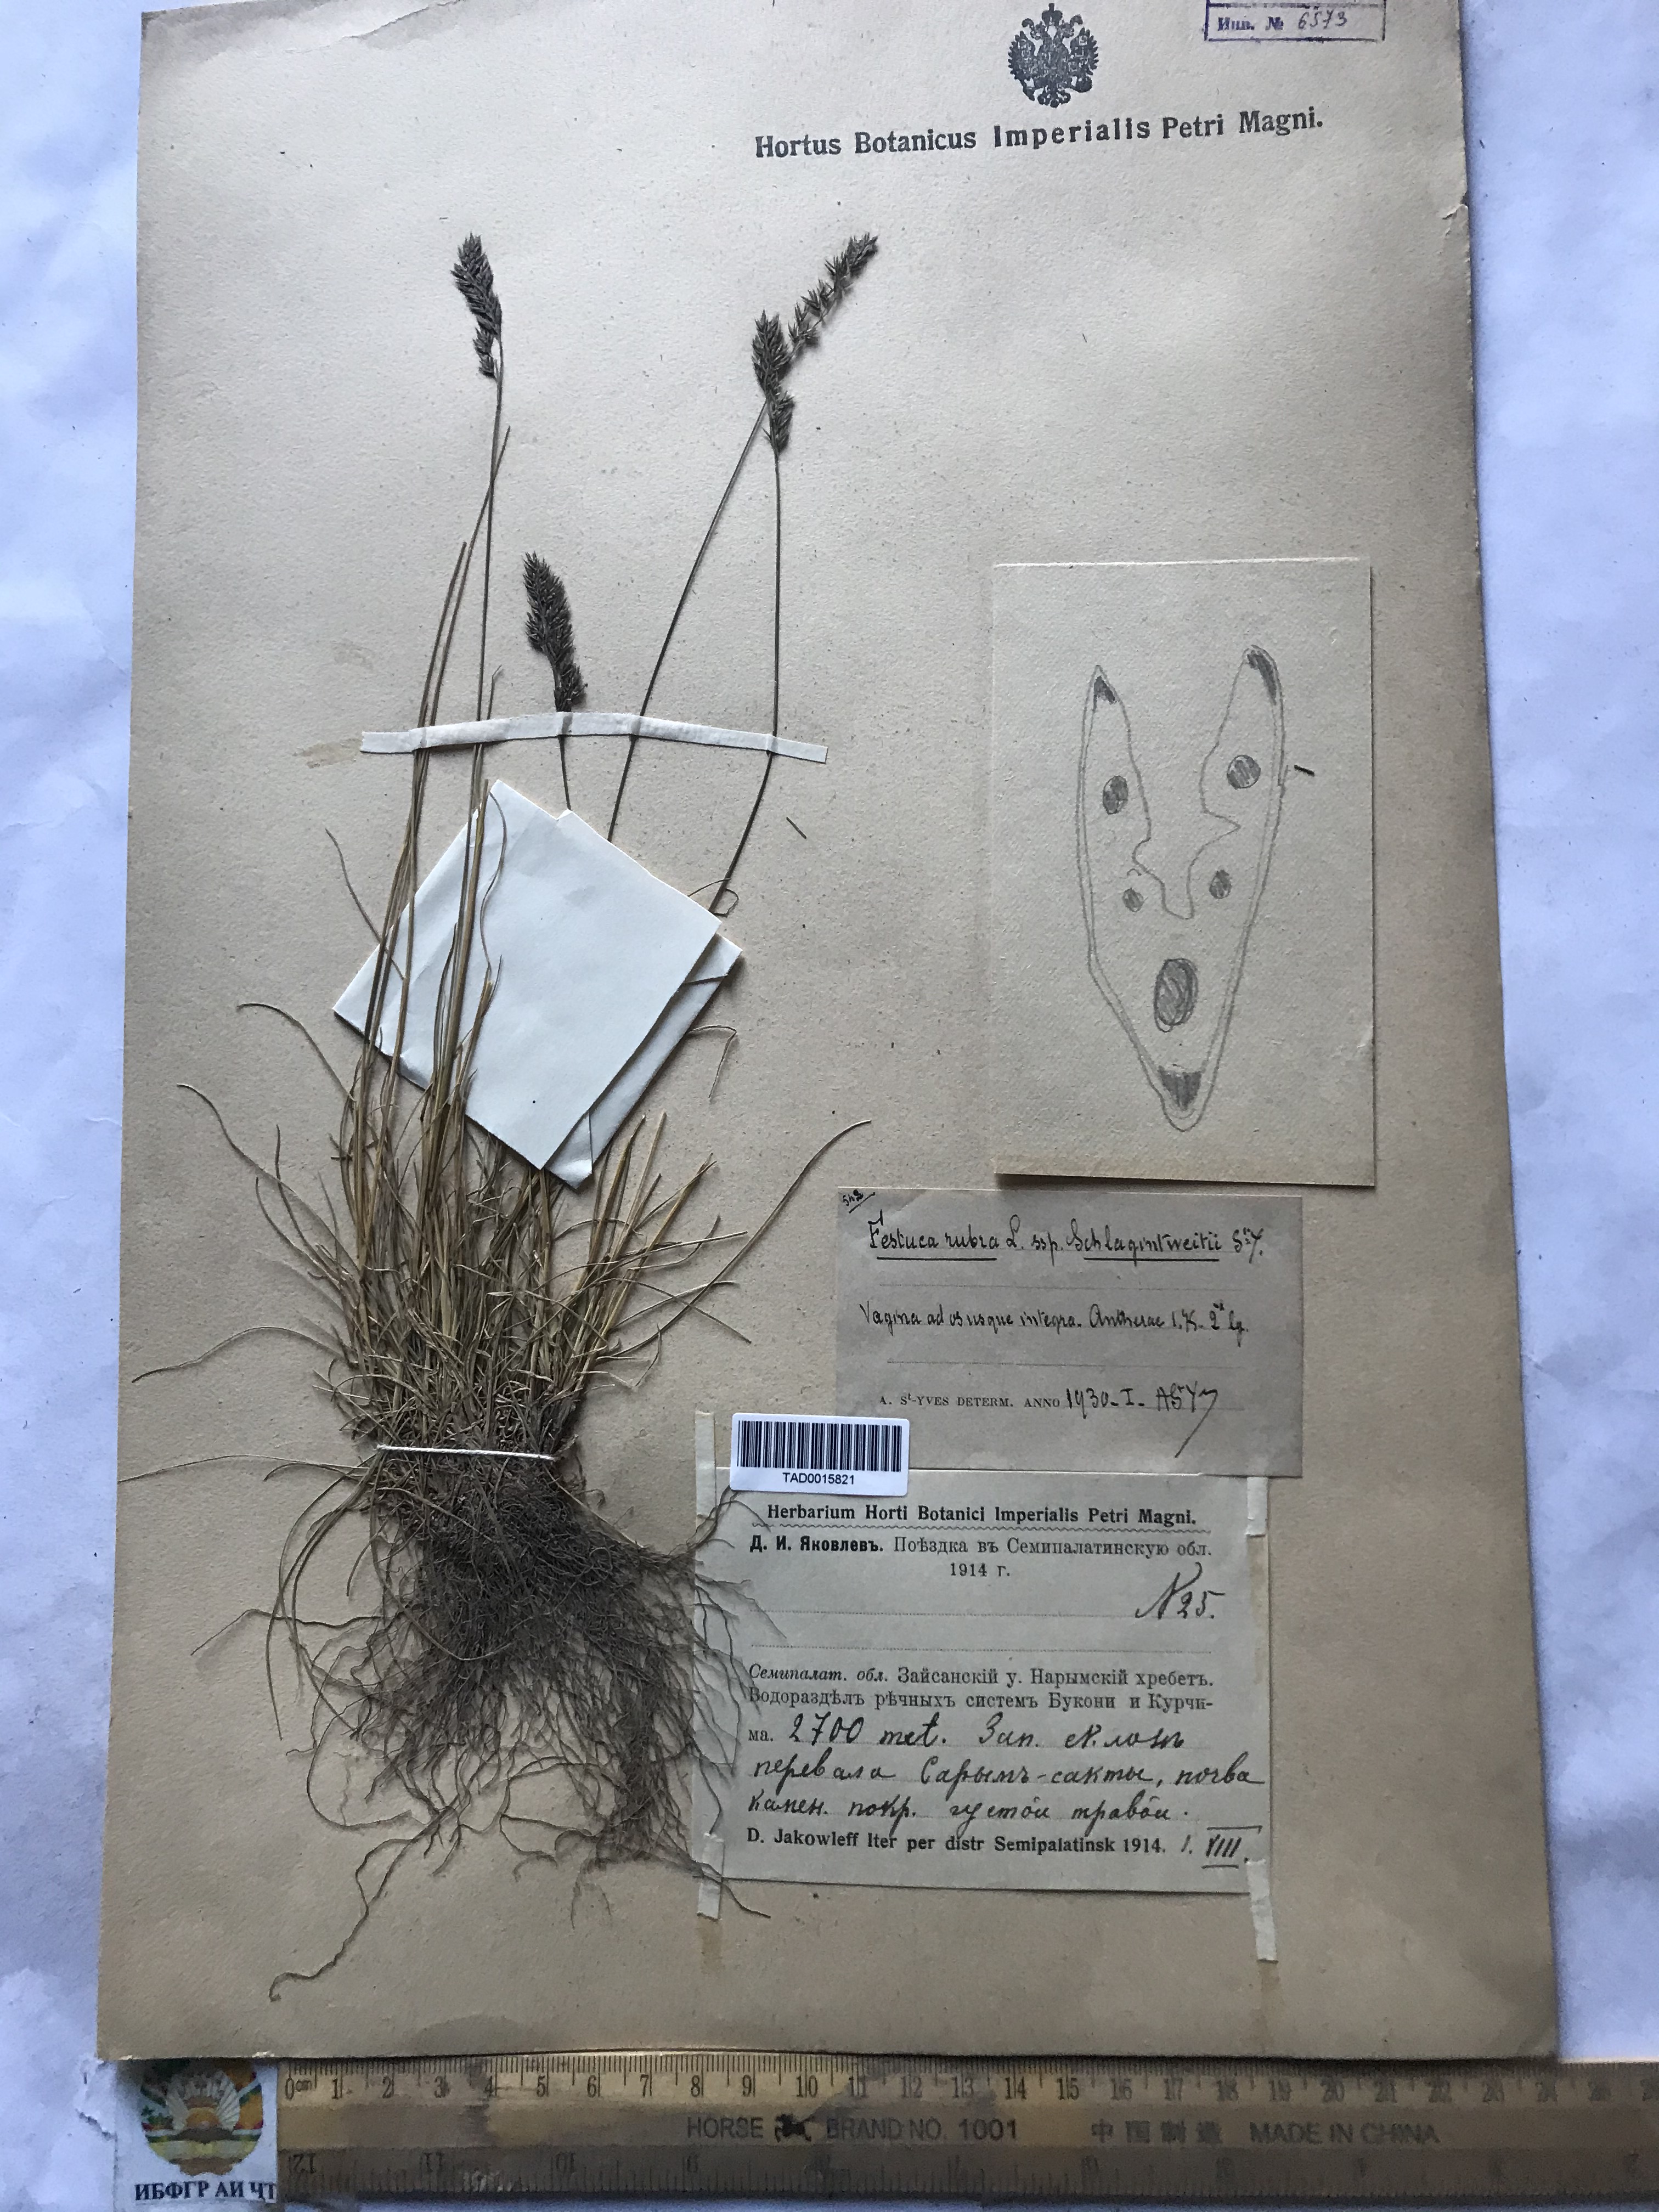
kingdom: Plantae
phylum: Tracheophyta
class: Liliopsida
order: Poales
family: Poaceae
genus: Festuca
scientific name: Festuca rubra
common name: Red fescue
